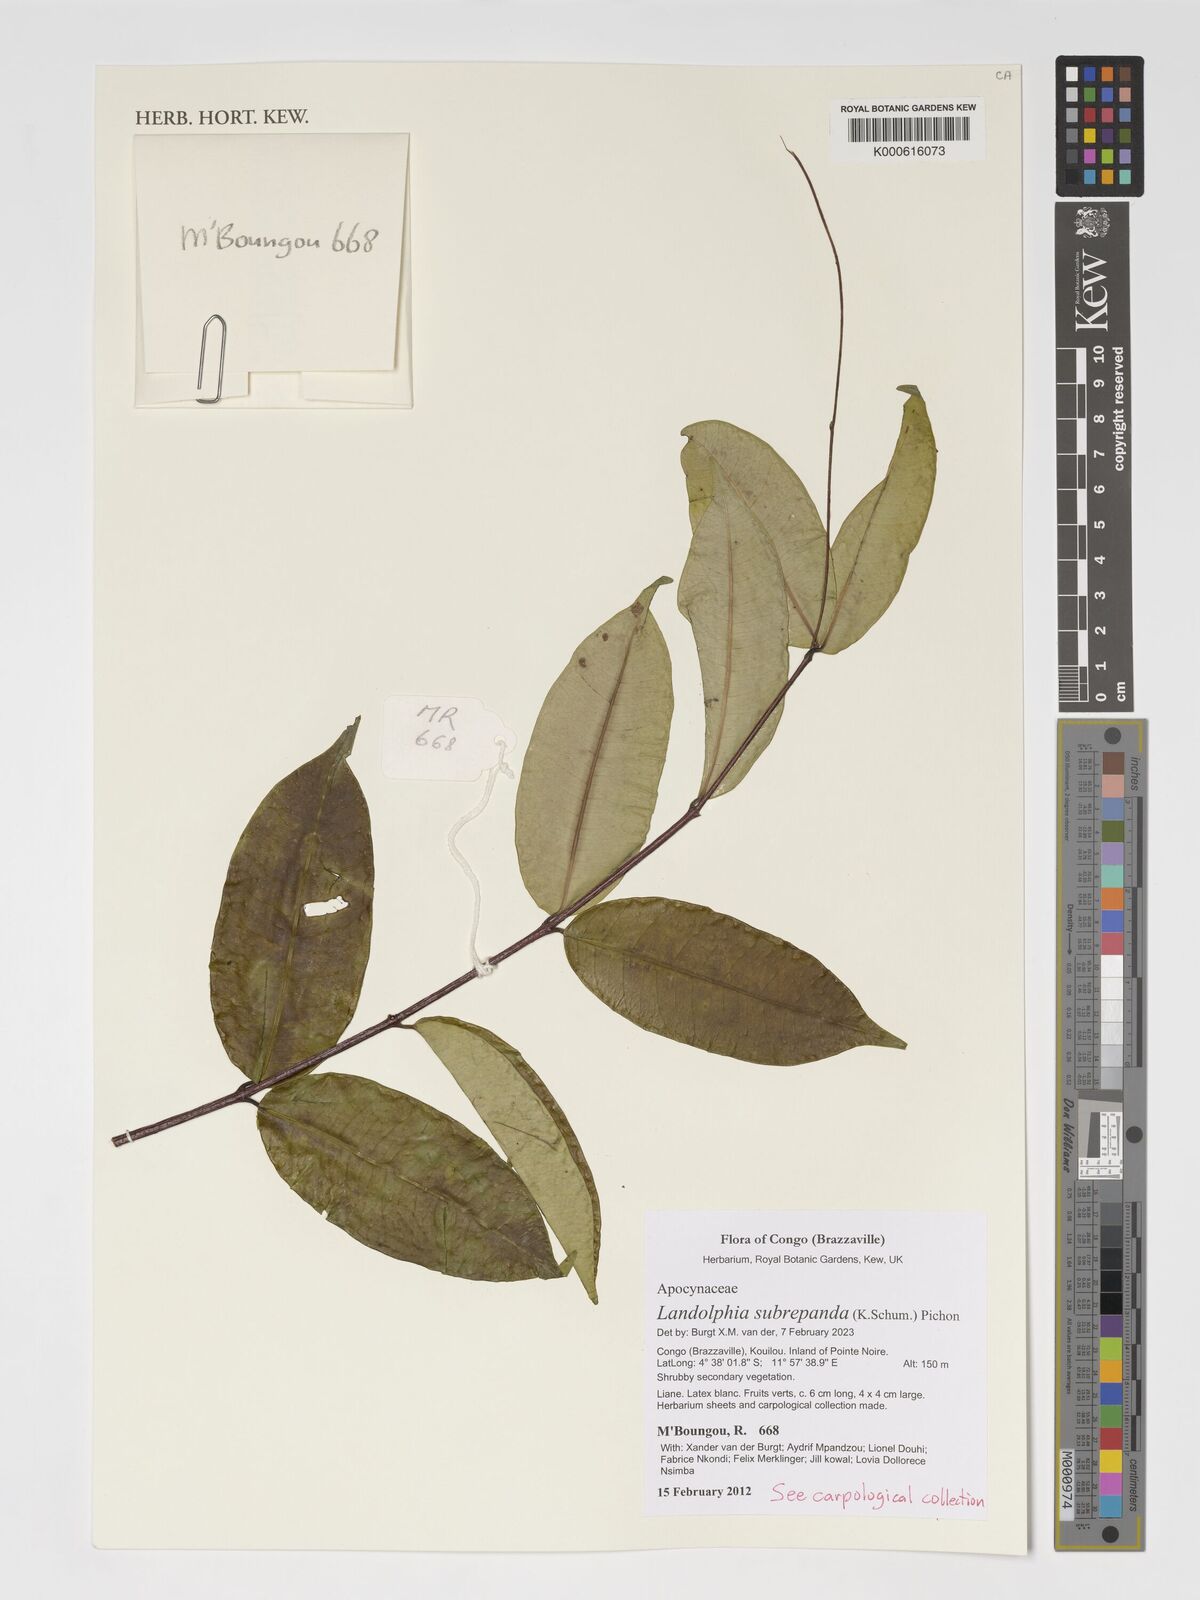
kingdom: Plantae
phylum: Tracheophyta
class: Magnoliopsida
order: Gentianales
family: Apocynaceae
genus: Landolphia
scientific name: Landolphia subrepanda
